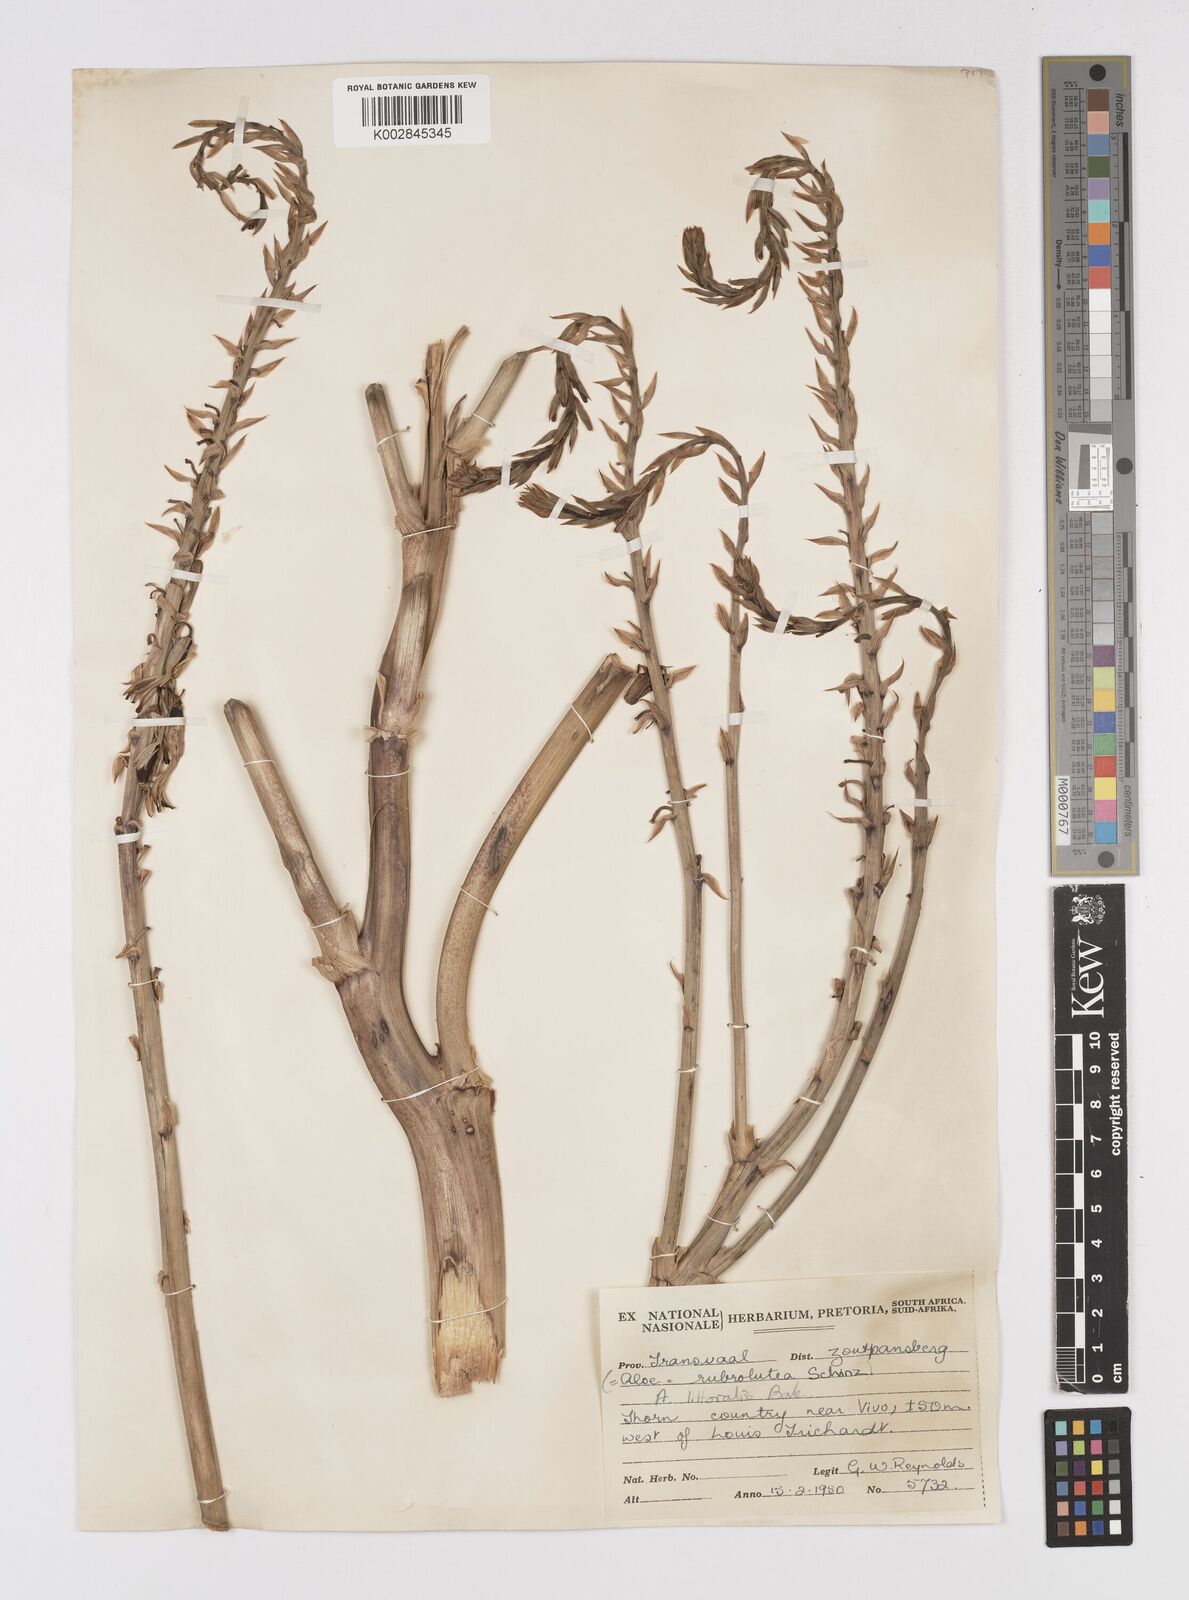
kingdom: Plantae
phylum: Tracheophyta
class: Liliopsida
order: Asparagales
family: Asphodelaceae
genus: Aloe
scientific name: Aloe littoralis
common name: Luanda tree aloe
